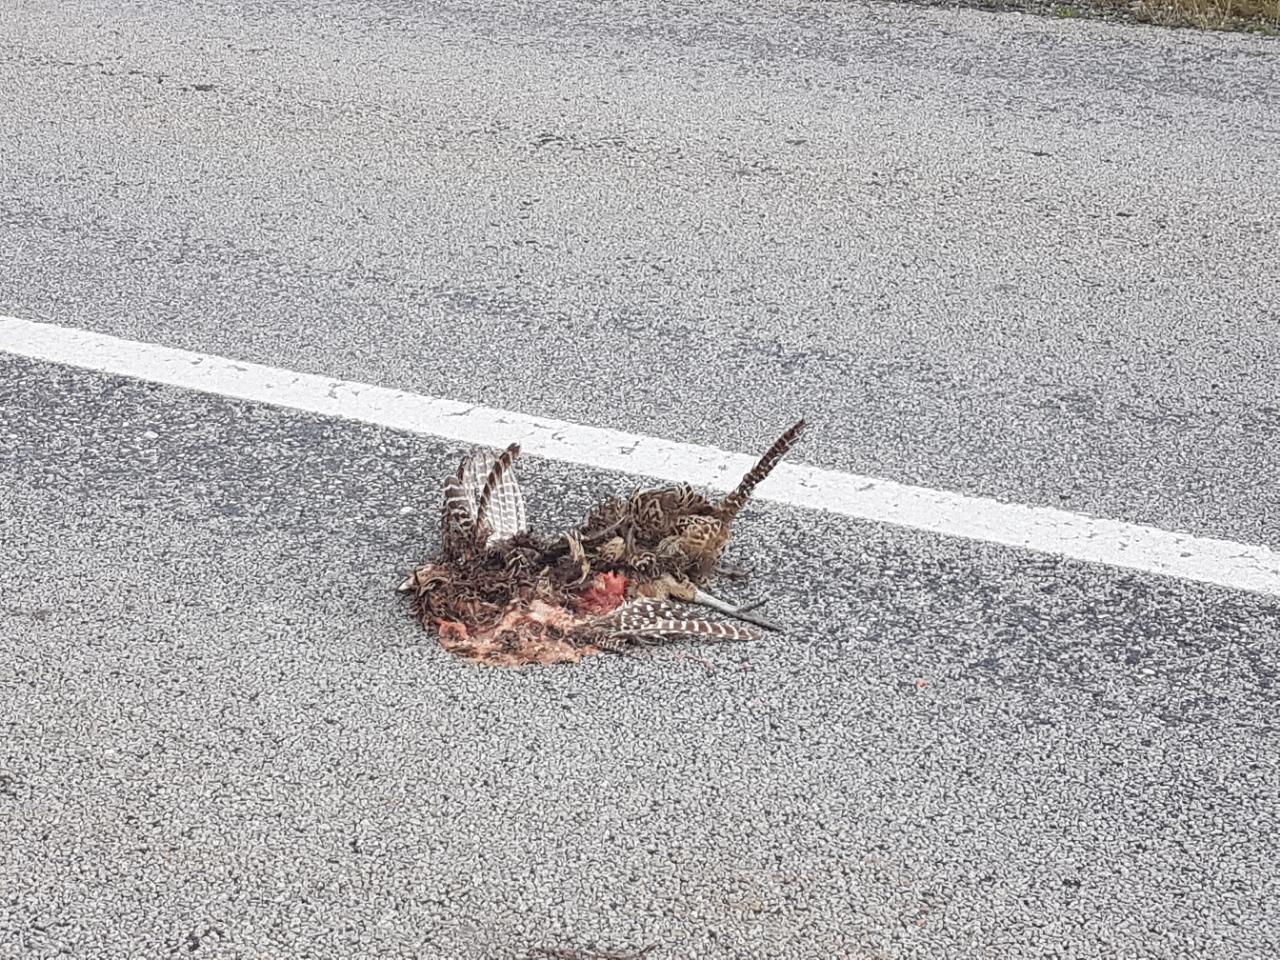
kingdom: Animalia
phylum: Chordata
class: Aves
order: Galliformes
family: Phasianidae
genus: Phasianus
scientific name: Phasianus colchicus
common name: Common pheasant
